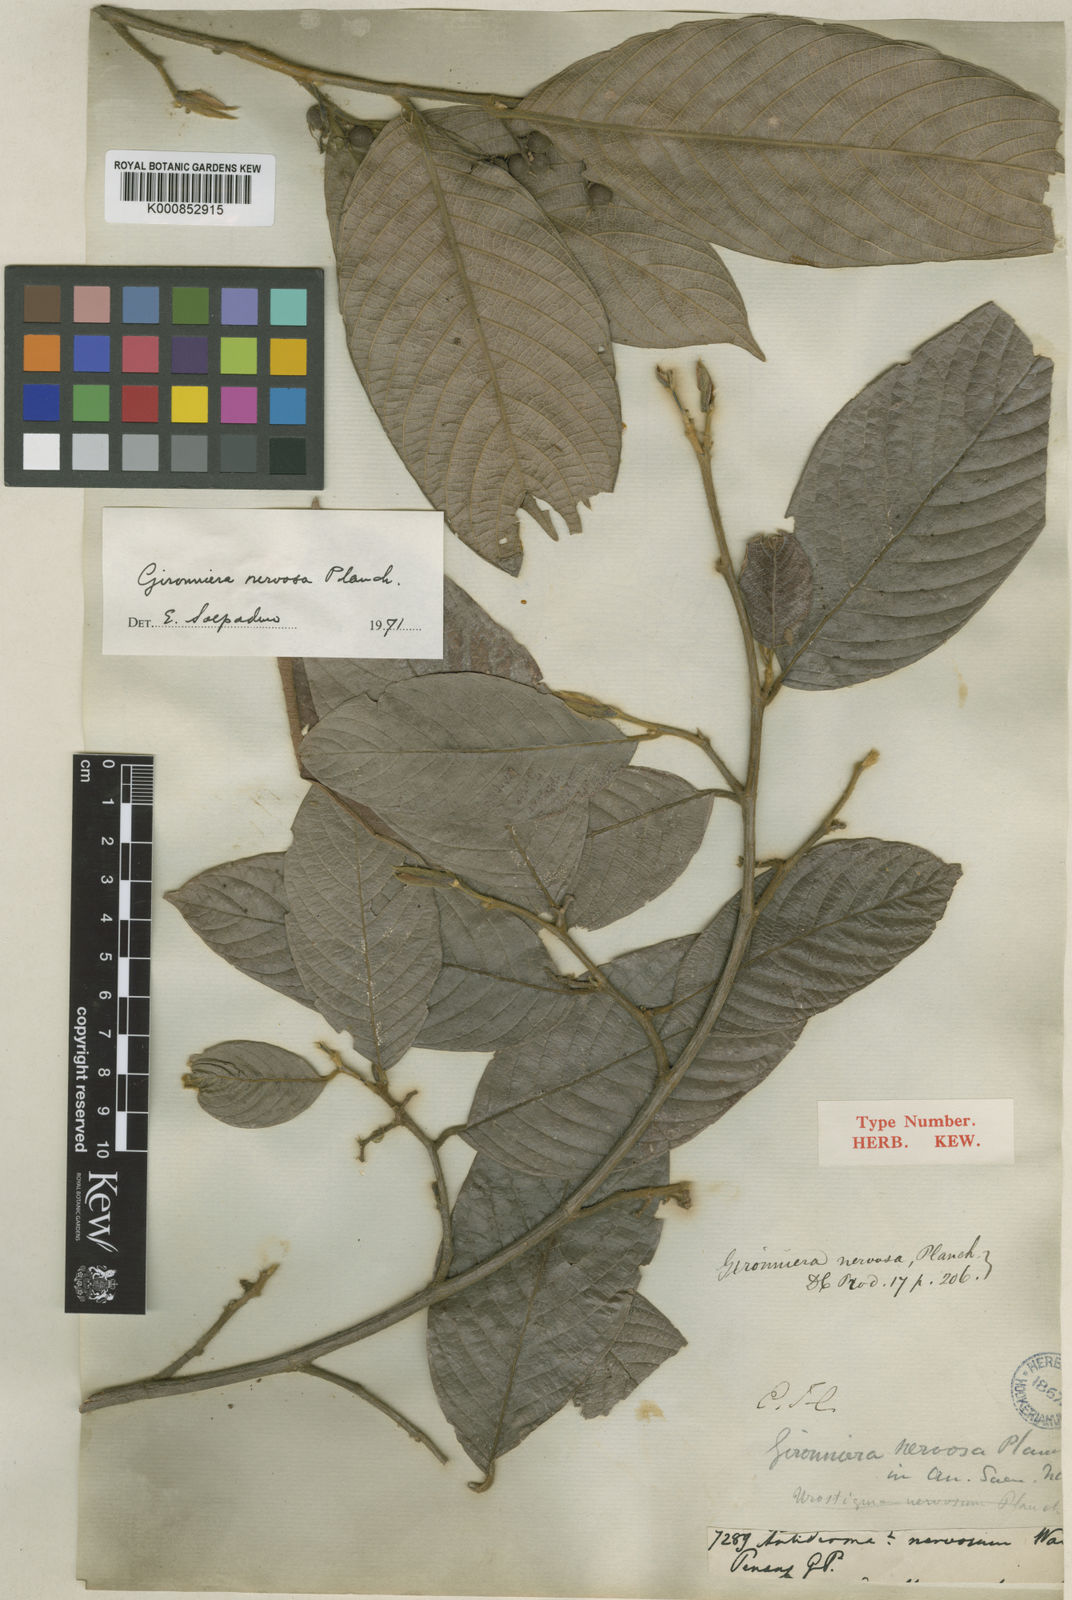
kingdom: Plantae
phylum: Tracheophyta
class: Magnoliopsida
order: Rosales
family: Cannabaceae
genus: Gironniera
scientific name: Gironniera nervosa
